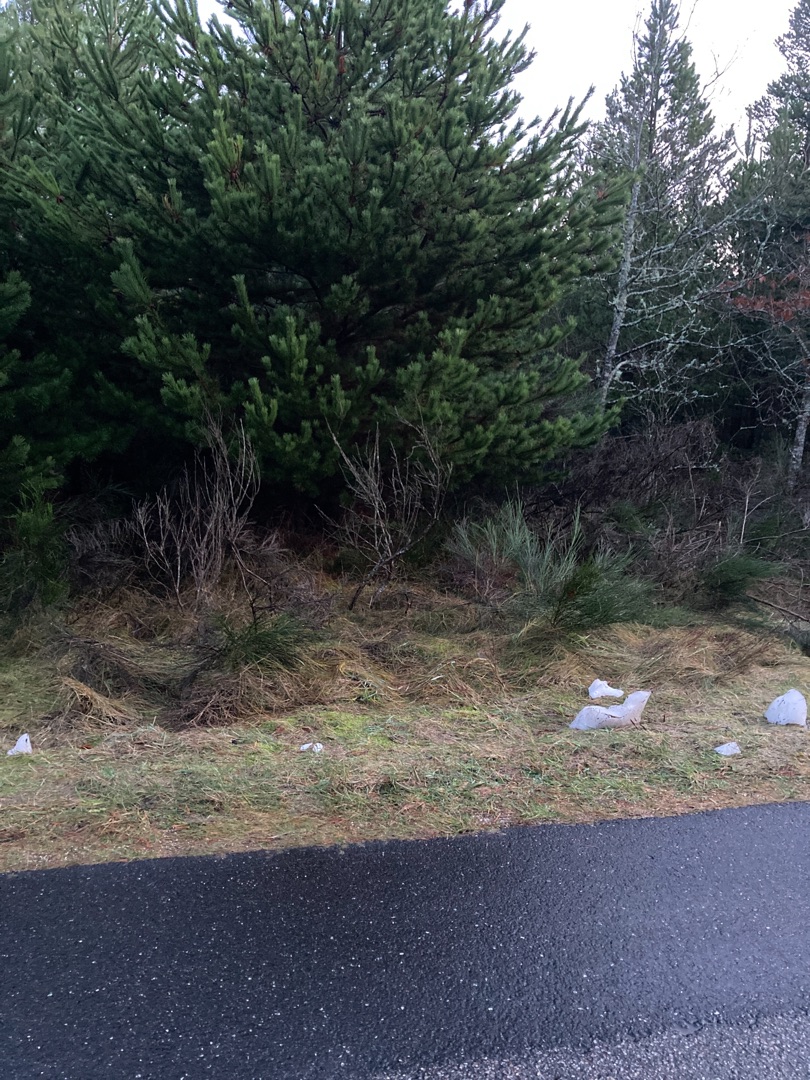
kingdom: Plantae
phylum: Tracheophyta
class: Magnoliopsida
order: Fabales
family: Fabaceae
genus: Cytisus
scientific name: Cytisus scoparius
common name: Almindelig gyvel
